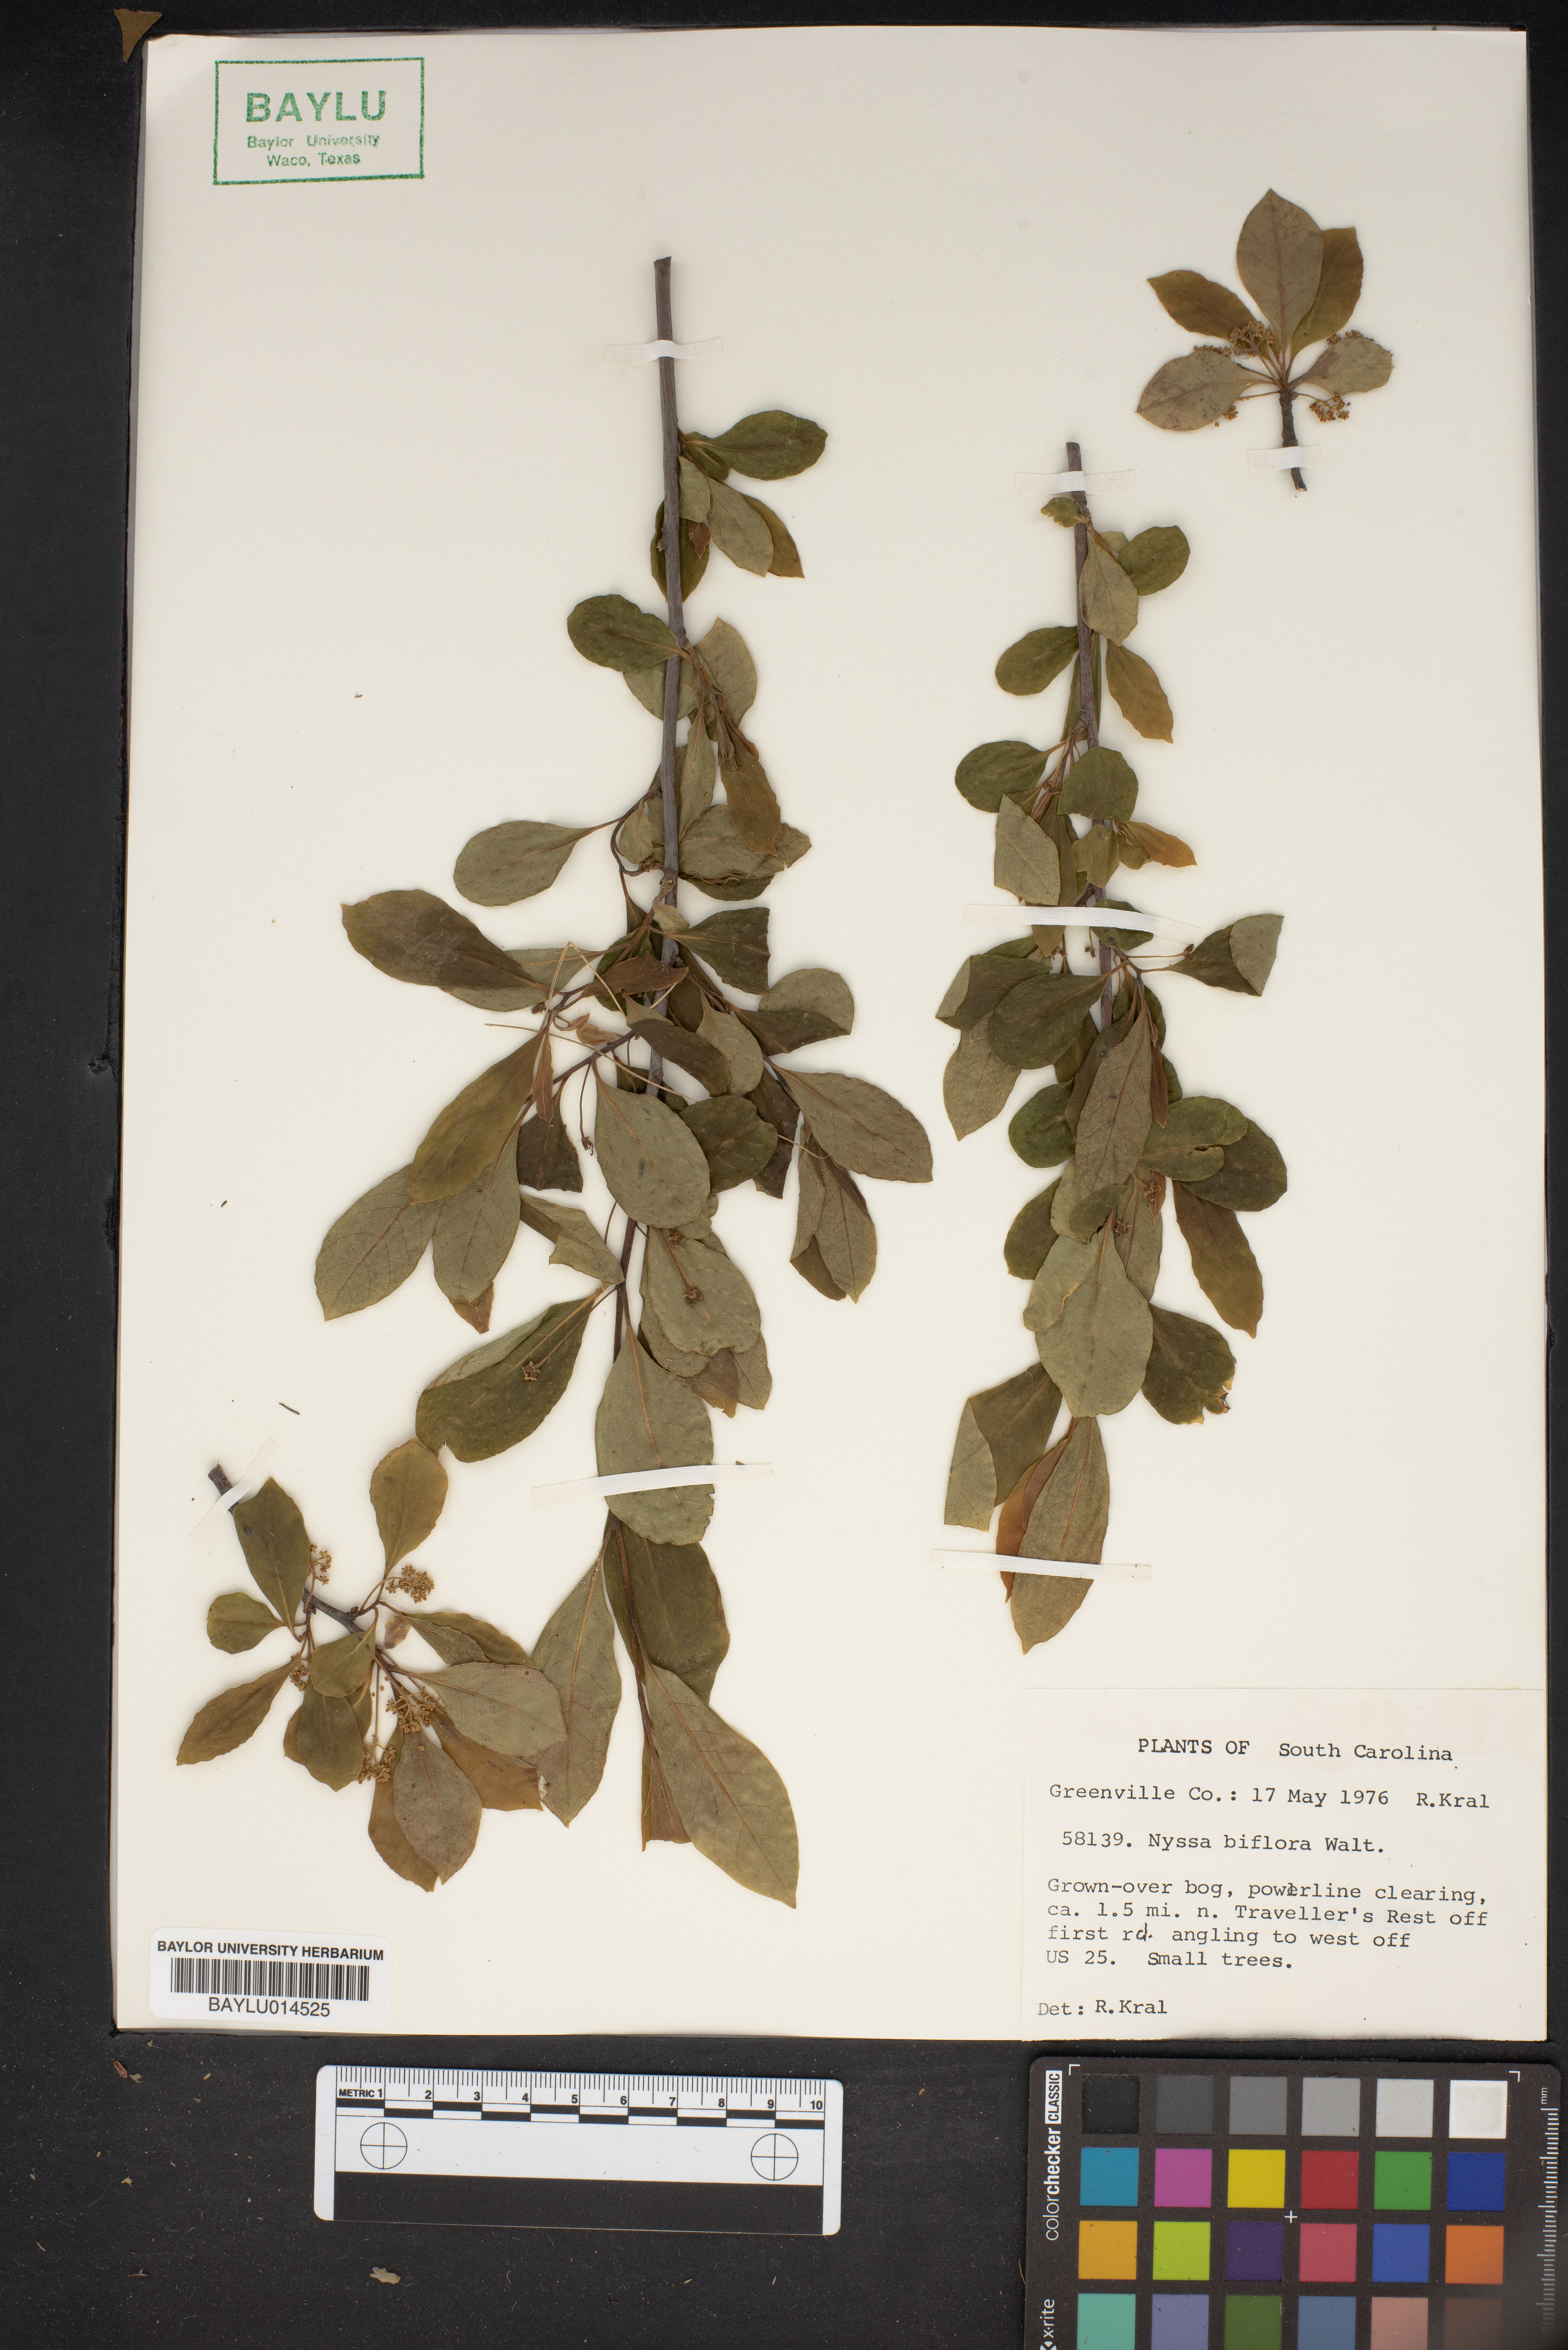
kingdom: Plantae
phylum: Tracheophyta
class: Magnoliopsida
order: Cornales
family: Nyssaceae
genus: Nyssa
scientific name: Nyssa biflora
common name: Swamp blackgum
